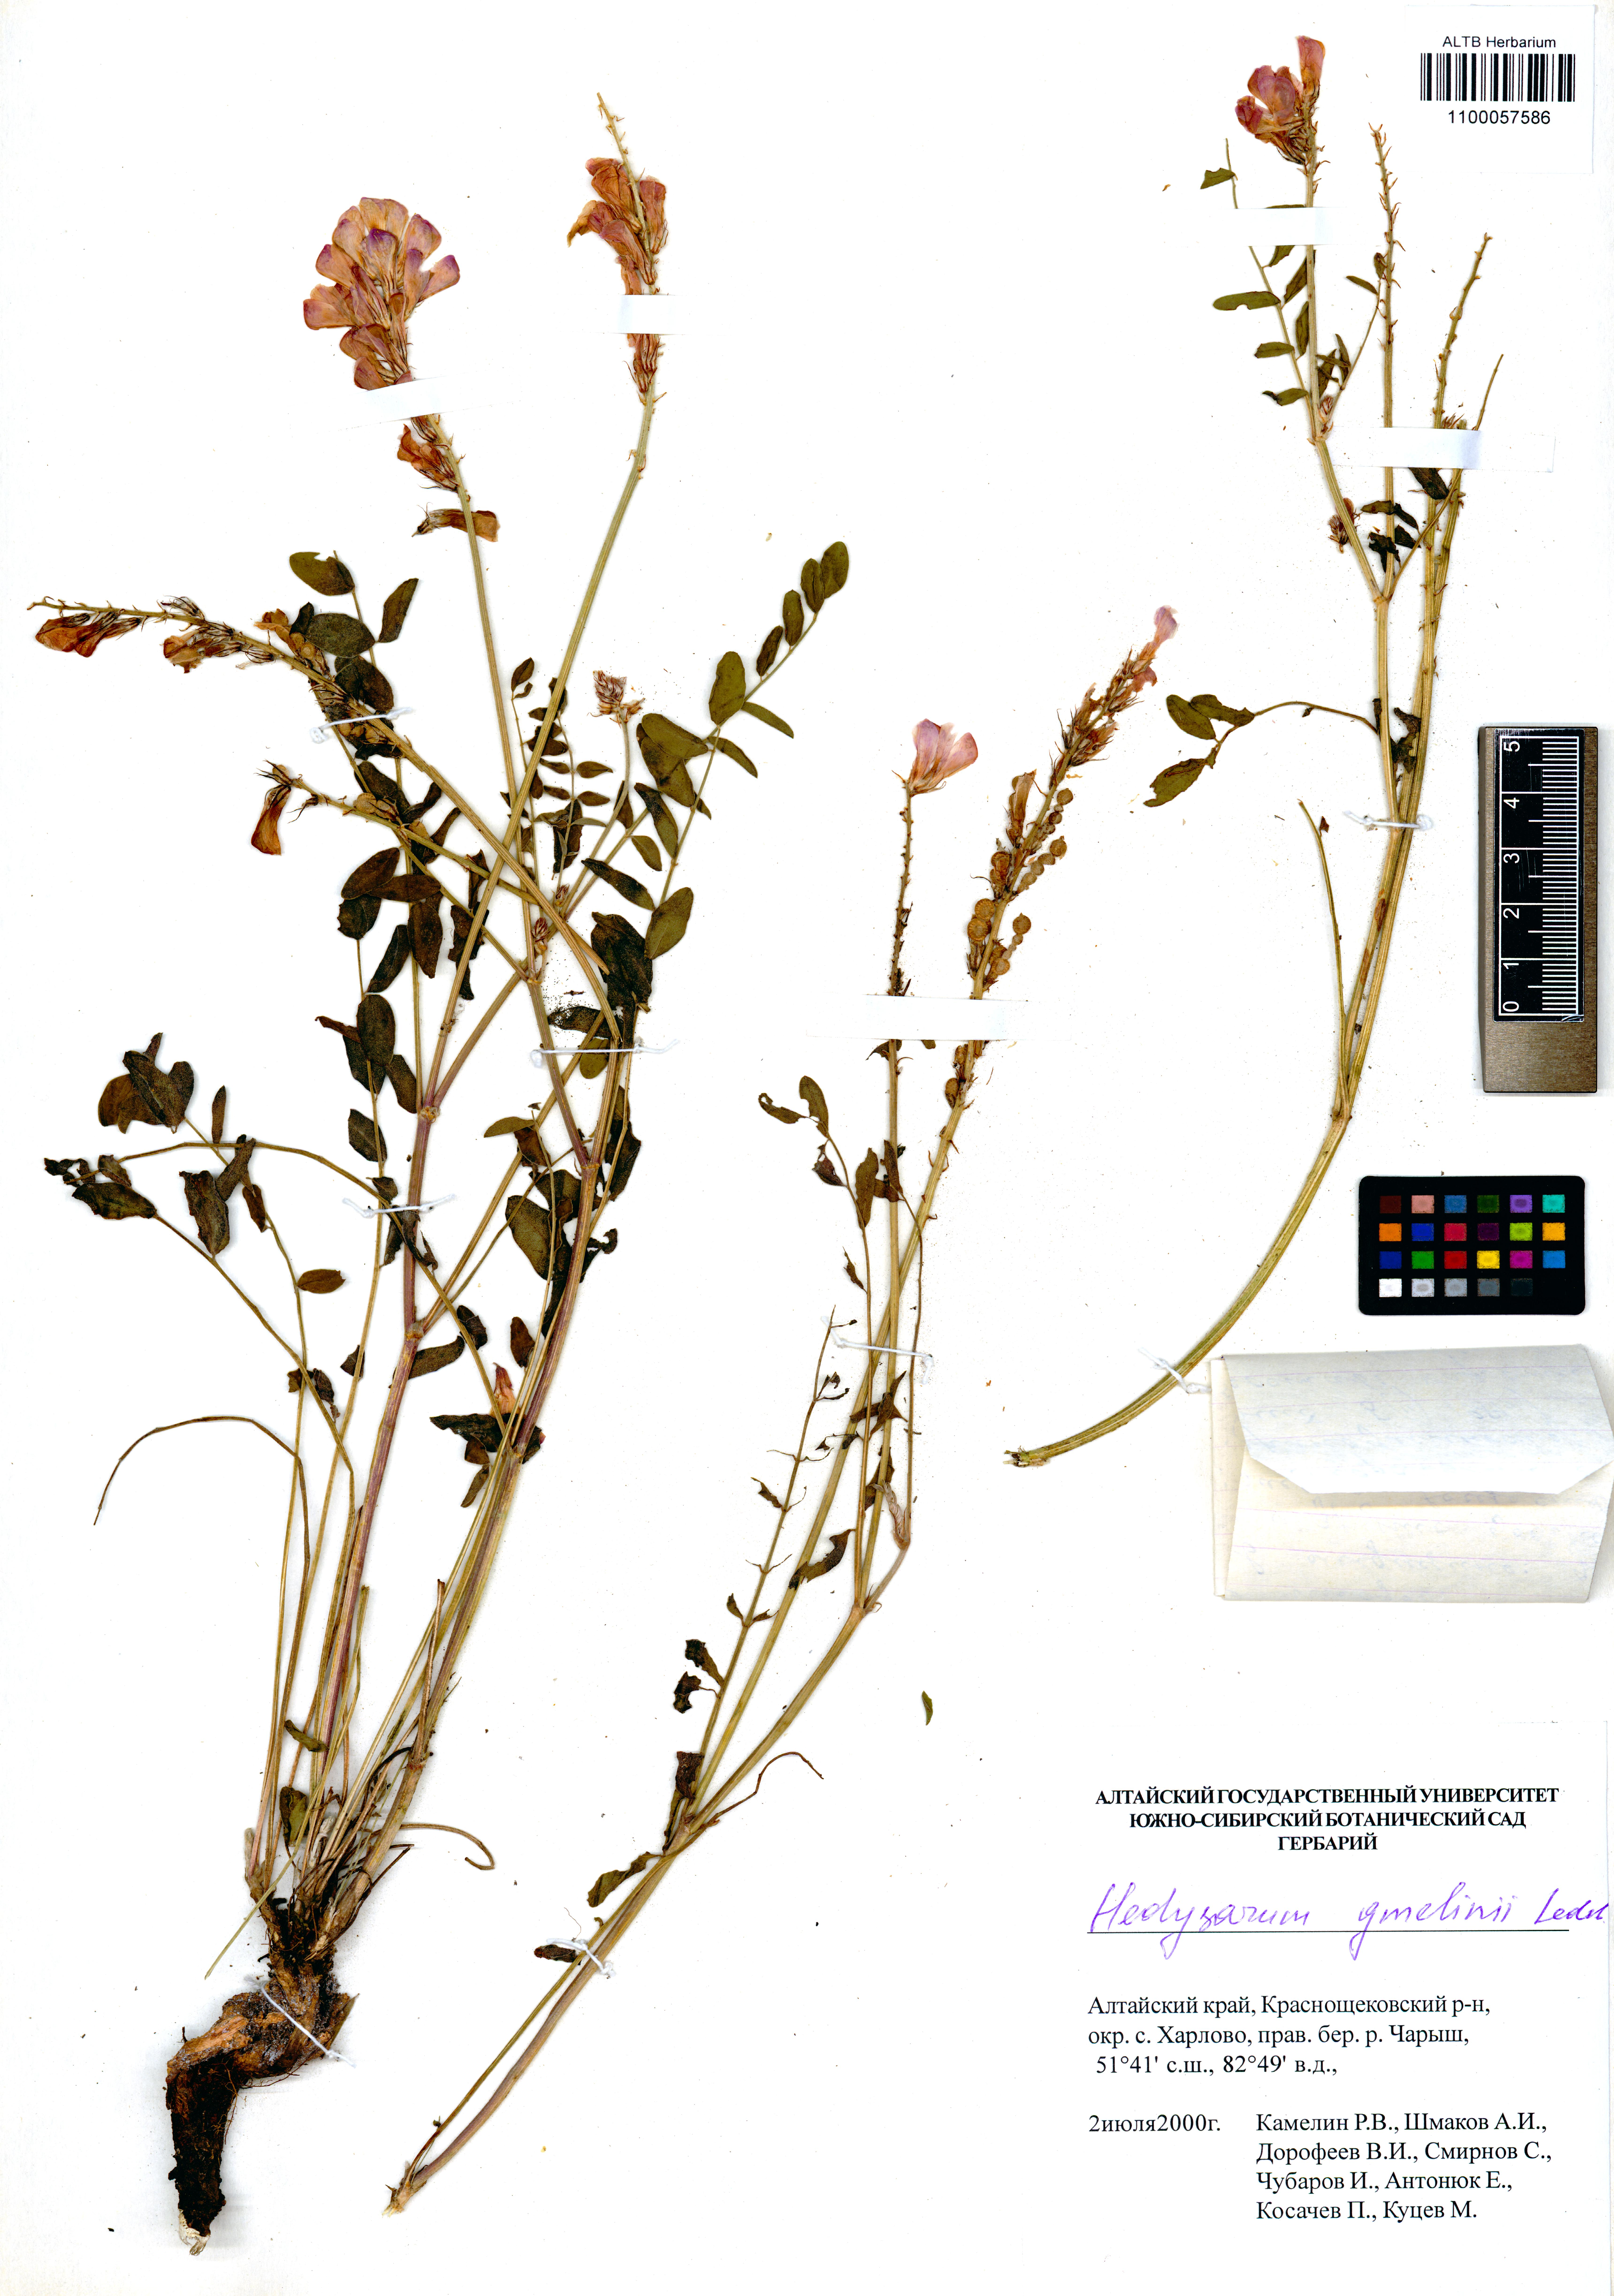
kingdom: Plantae
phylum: Tracheophyta
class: Magnoliopsida
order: Fabales
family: Fabaceae
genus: Hedysarum
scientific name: Hedysarum gmelinii
